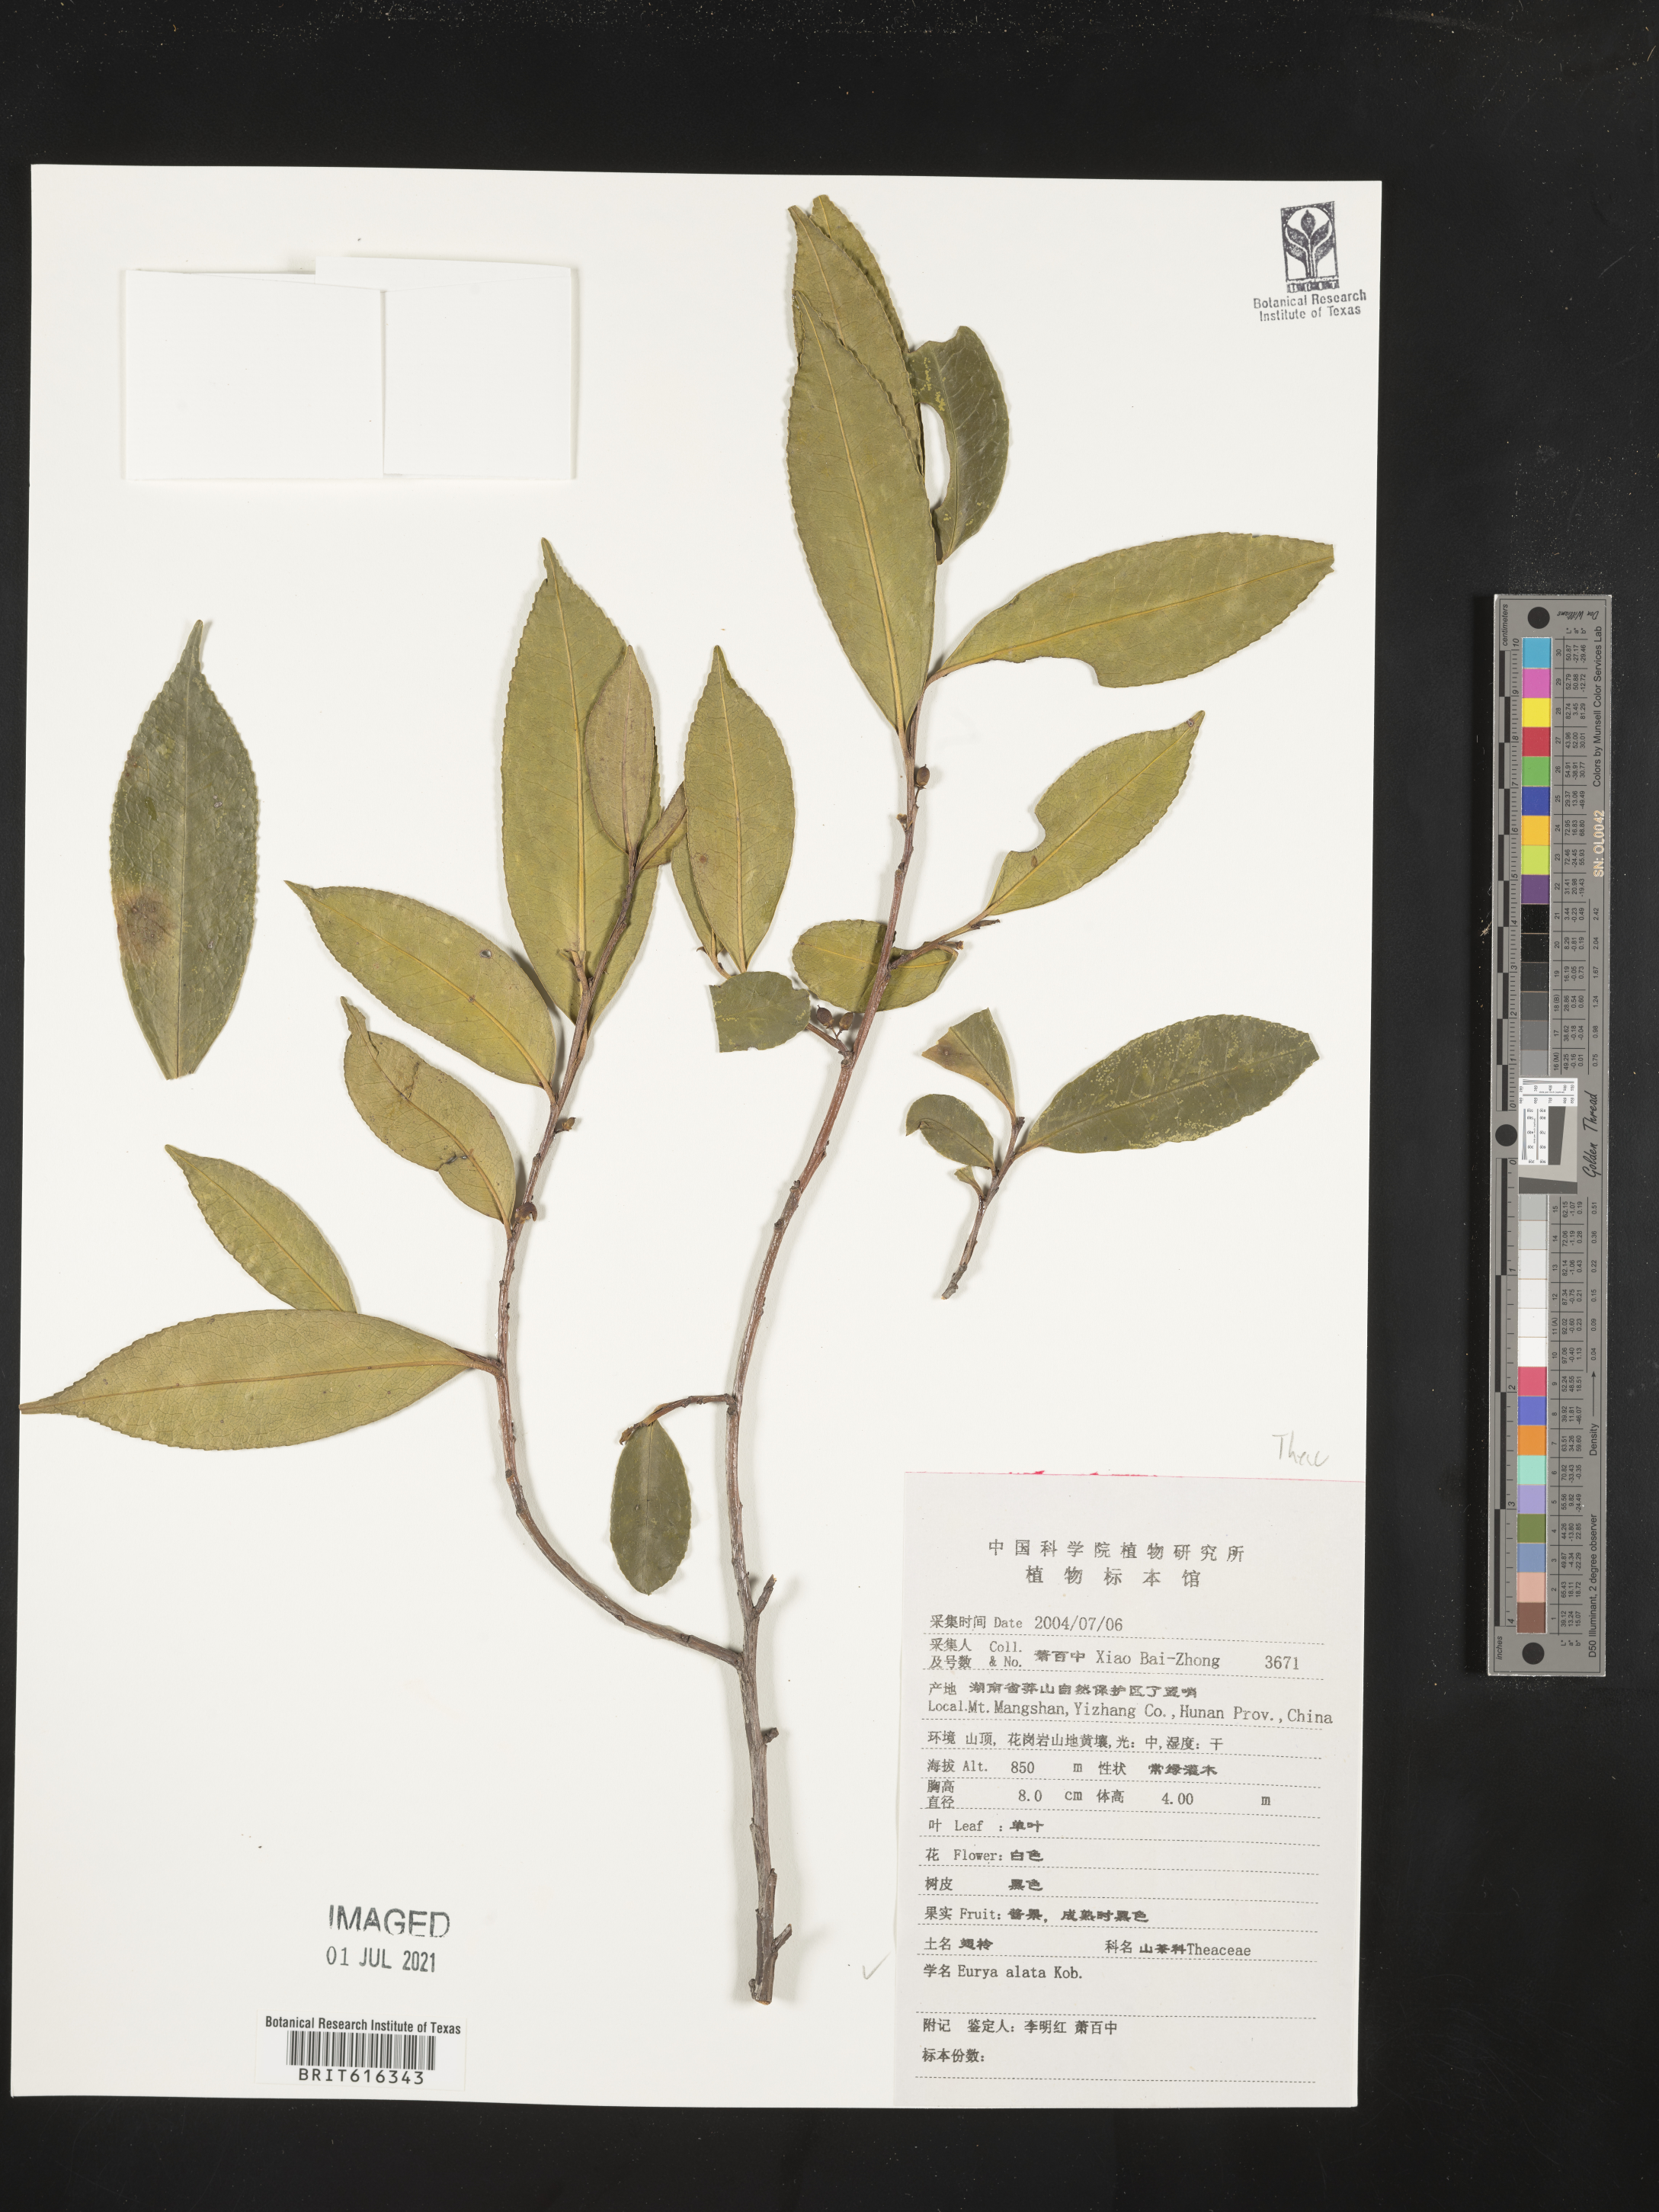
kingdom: Plantae
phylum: Tracheophyta
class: Magnoliopsida
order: Ericales
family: Pentaphylacaceae
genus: Eurya
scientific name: Eurya alata
